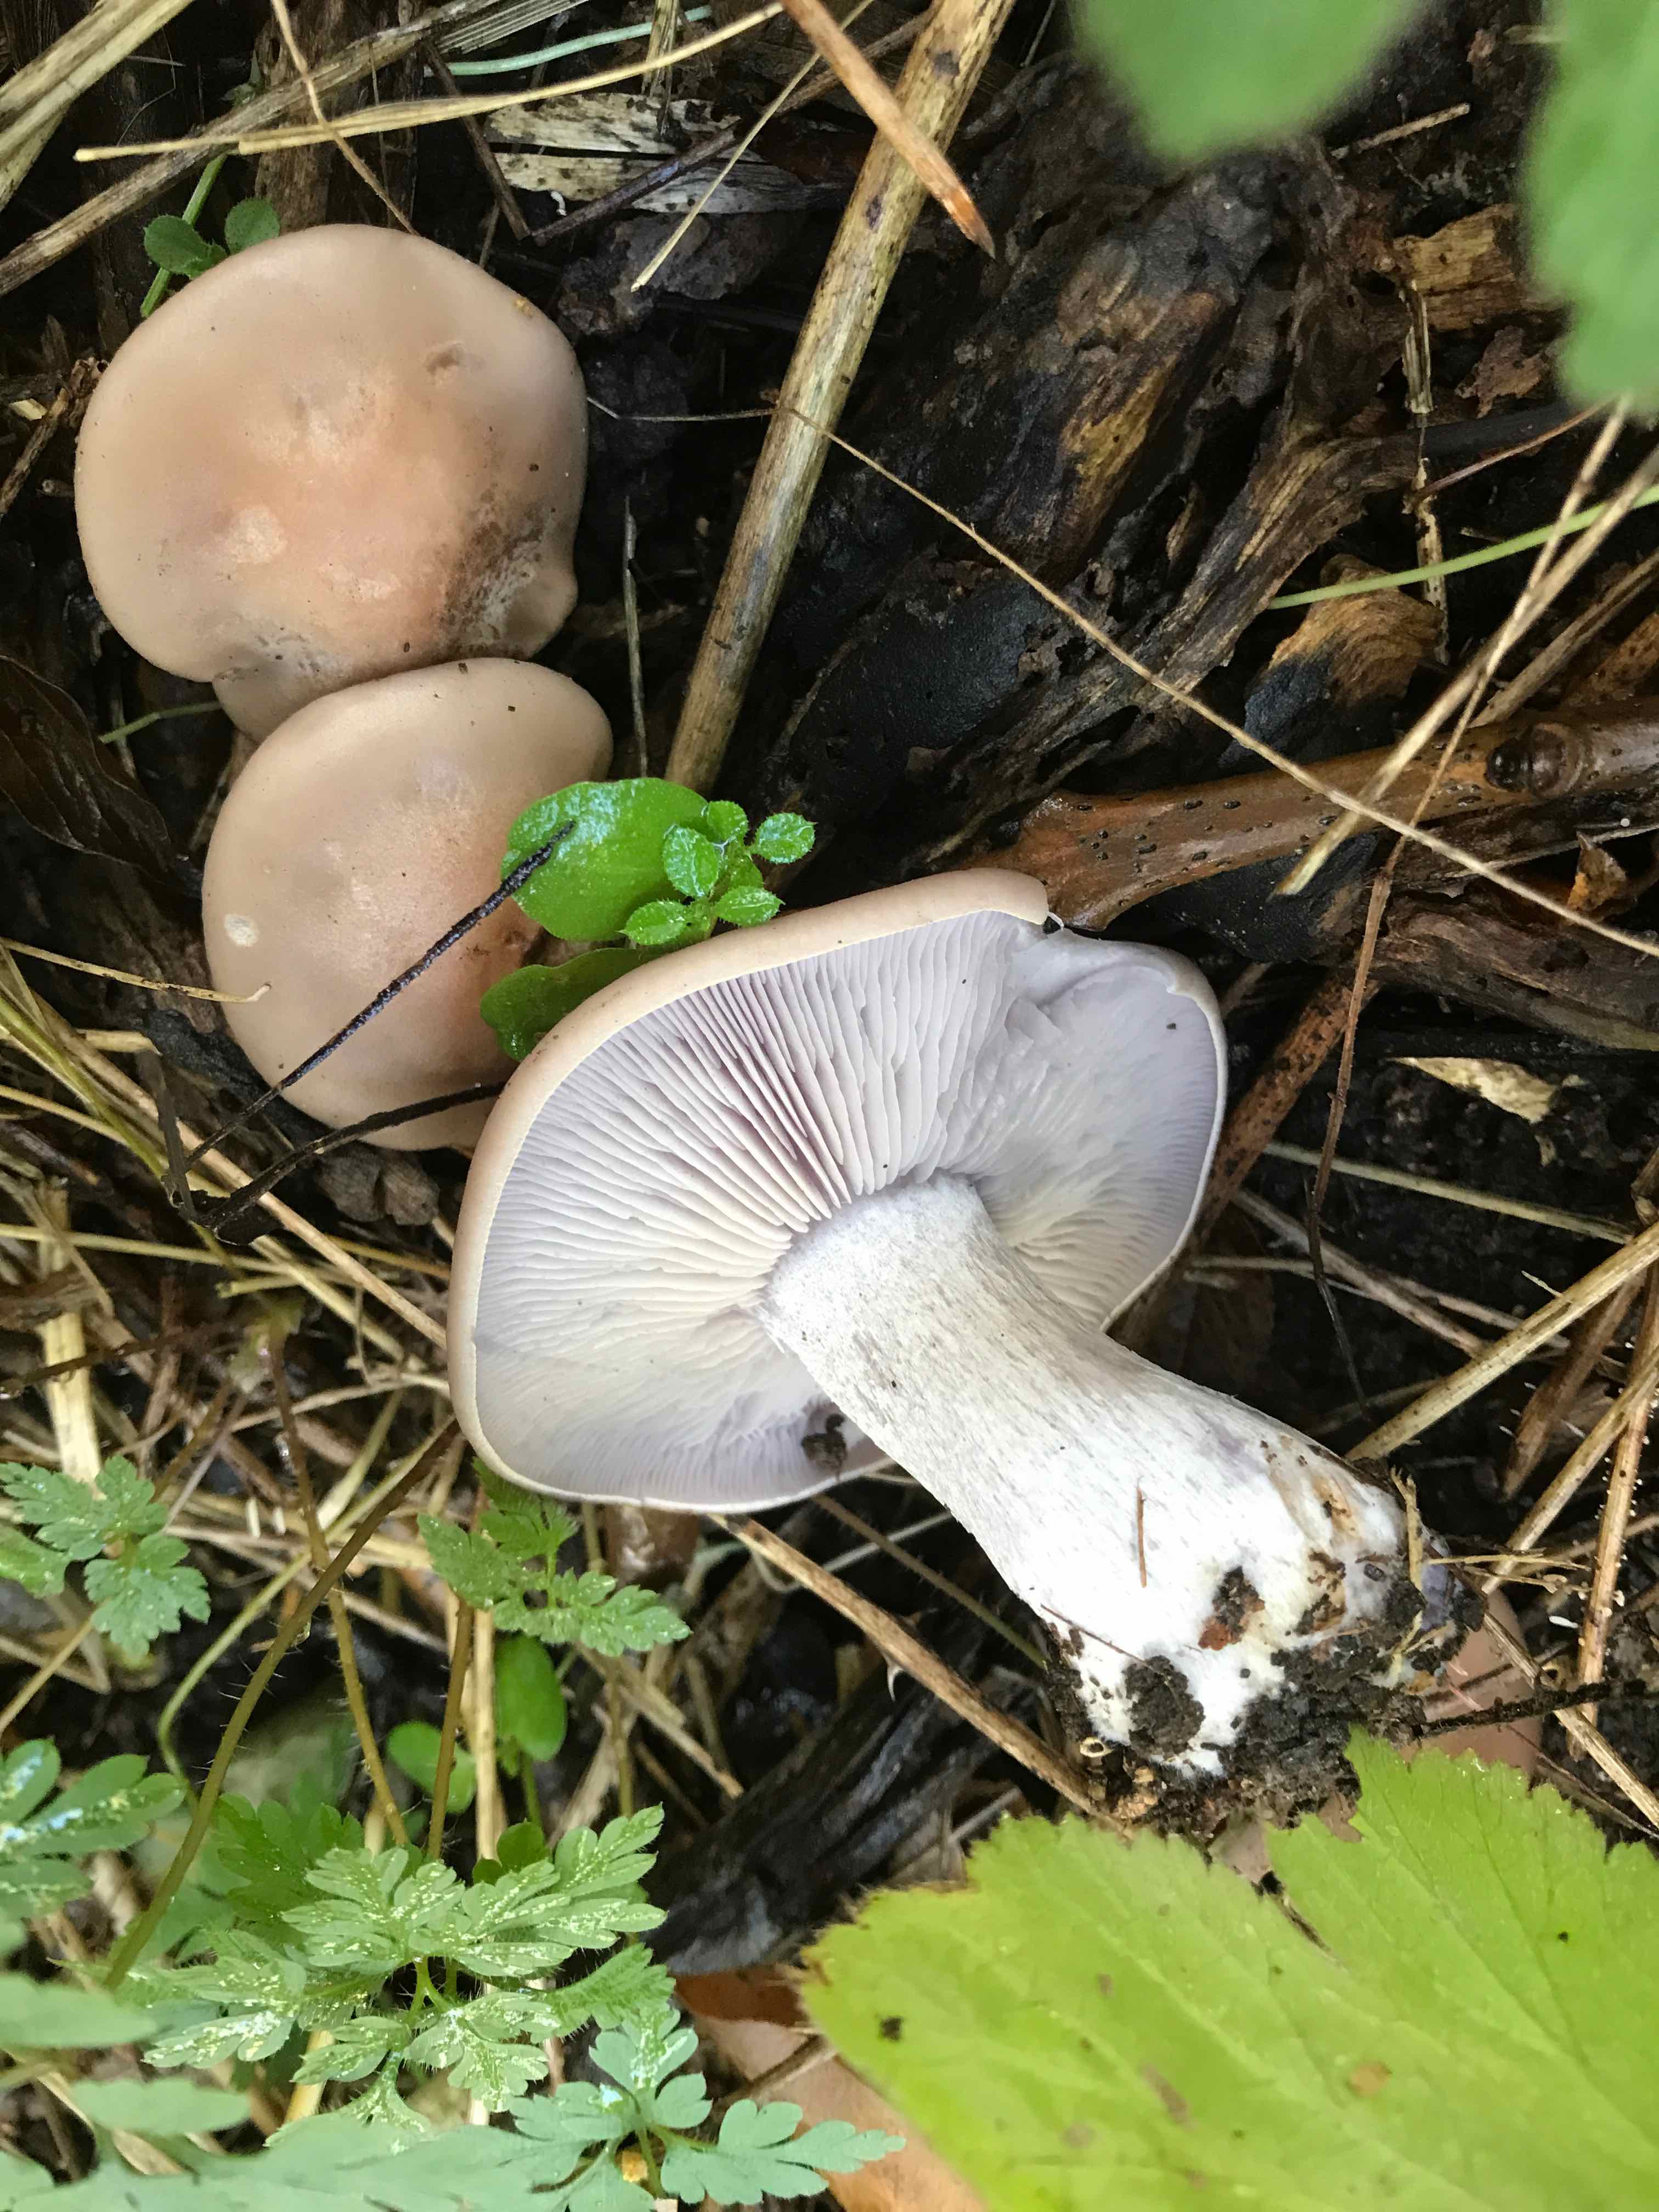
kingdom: Fungi
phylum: Basidiomycota
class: Agaricomycetes
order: Agaricales
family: Tricholomataceae
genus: Lepista
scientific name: Lepista nuda
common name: violet hekseringshat
